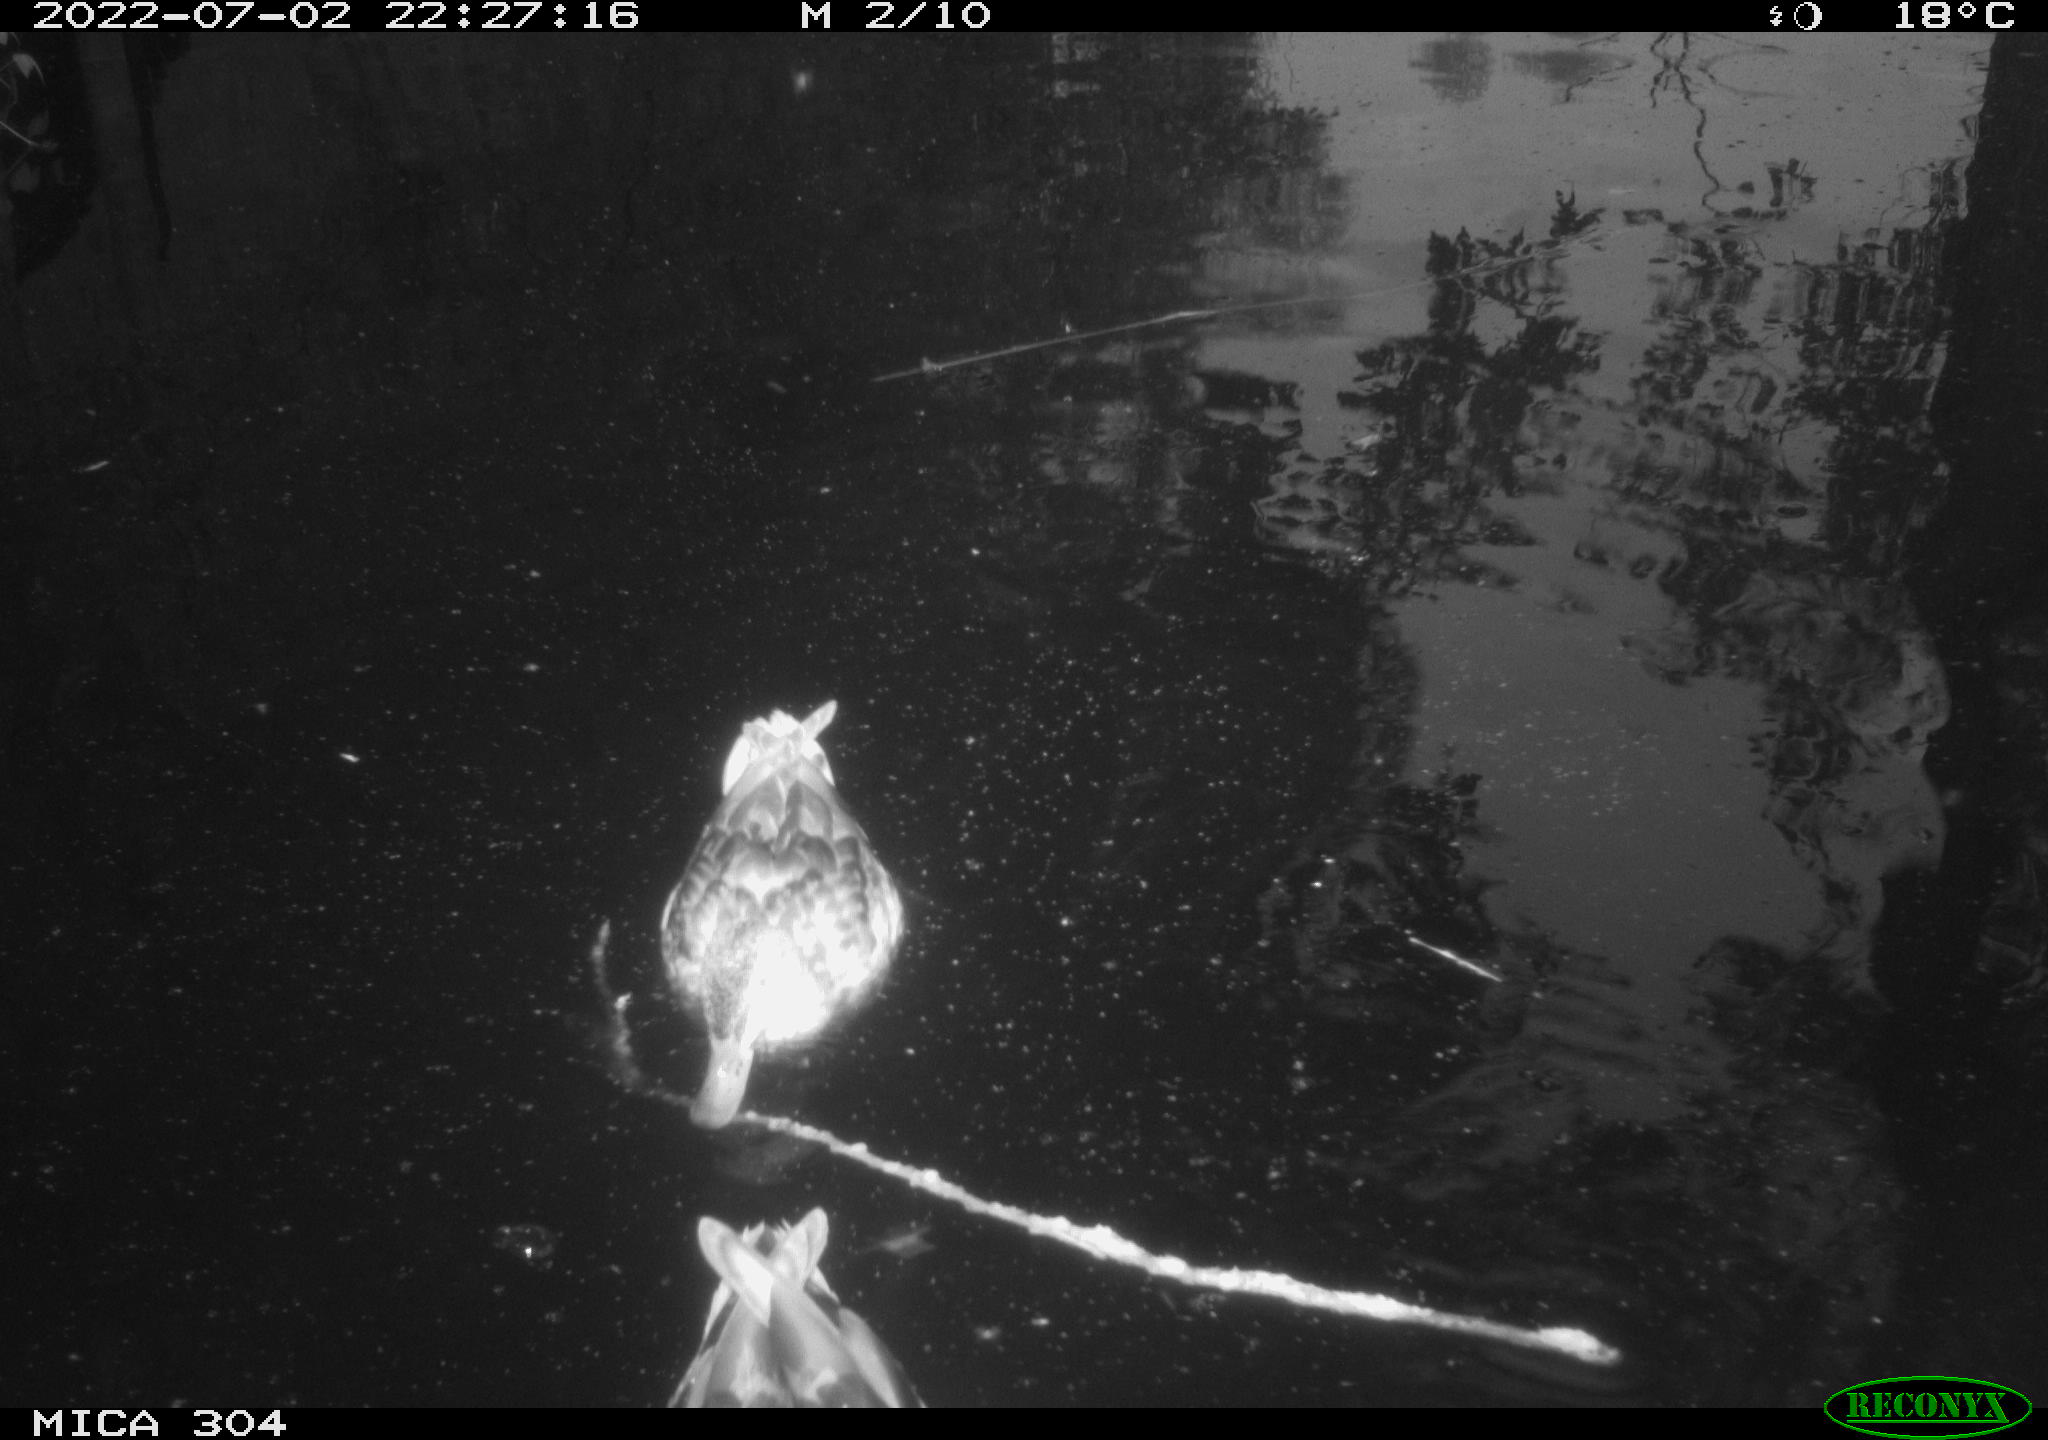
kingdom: Animalia
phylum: Chordata
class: Aves
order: Anseriformes
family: Anatidae
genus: Mareca
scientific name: Mareca strepera
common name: Gadwall
